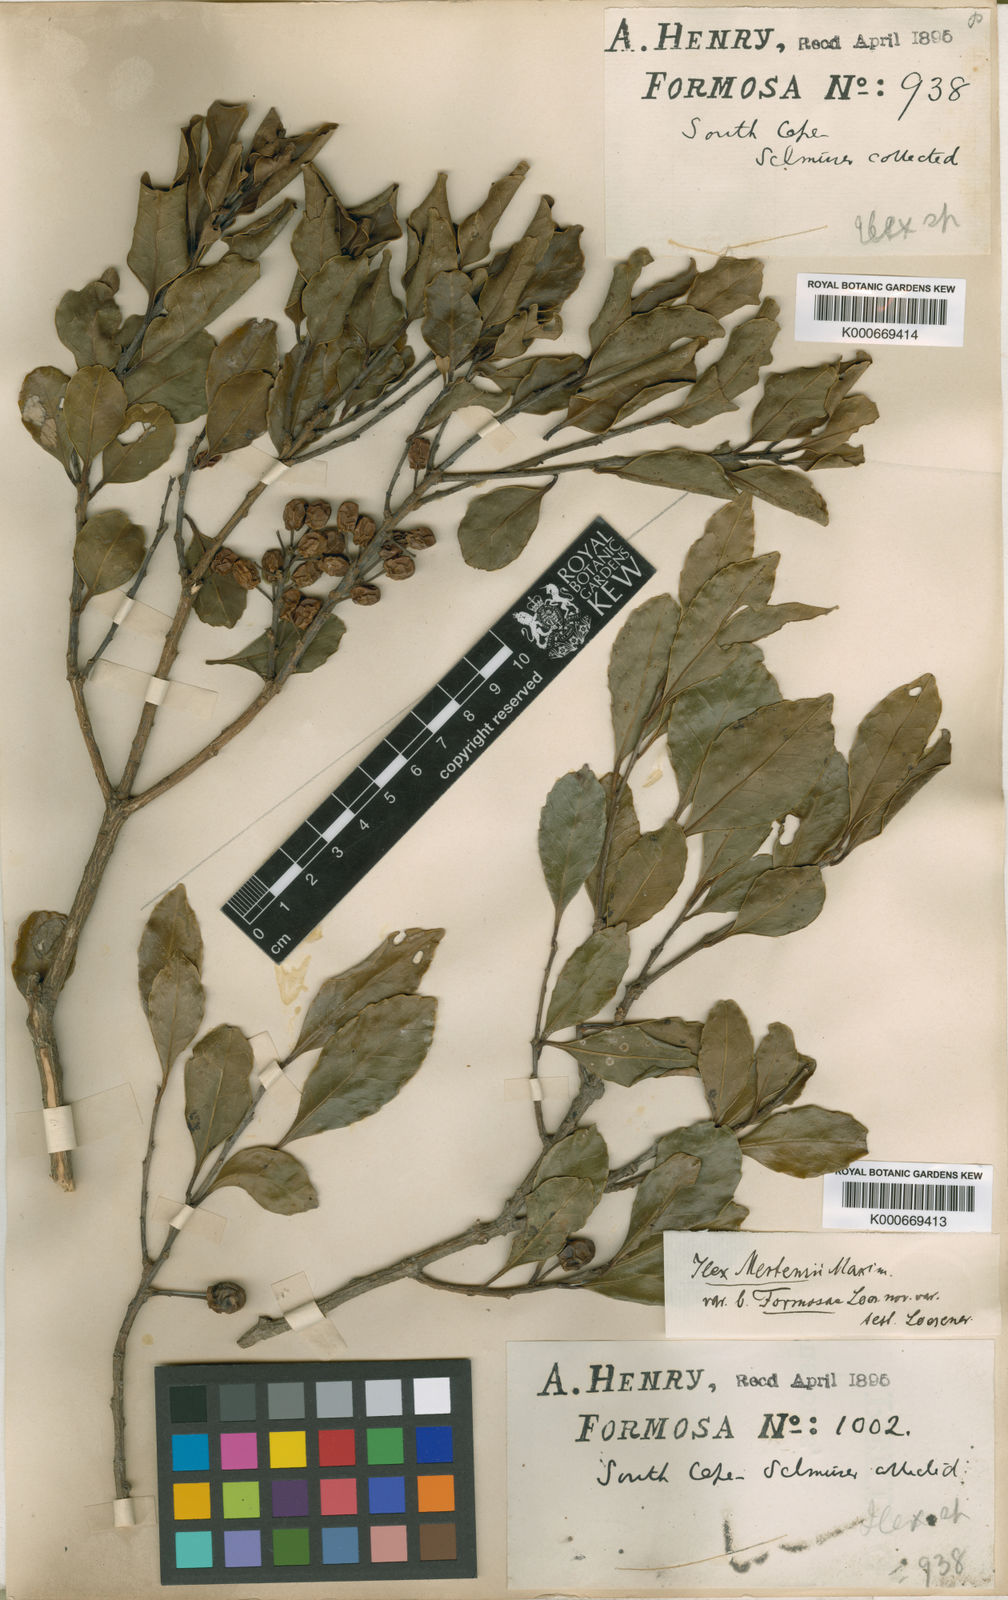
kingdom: Plantae
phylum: Tracheophyta
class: Magnoliopsida
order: Aquifoliales
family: Aquifoliaceae
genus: Ilex
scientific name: Ilex uraiensis
